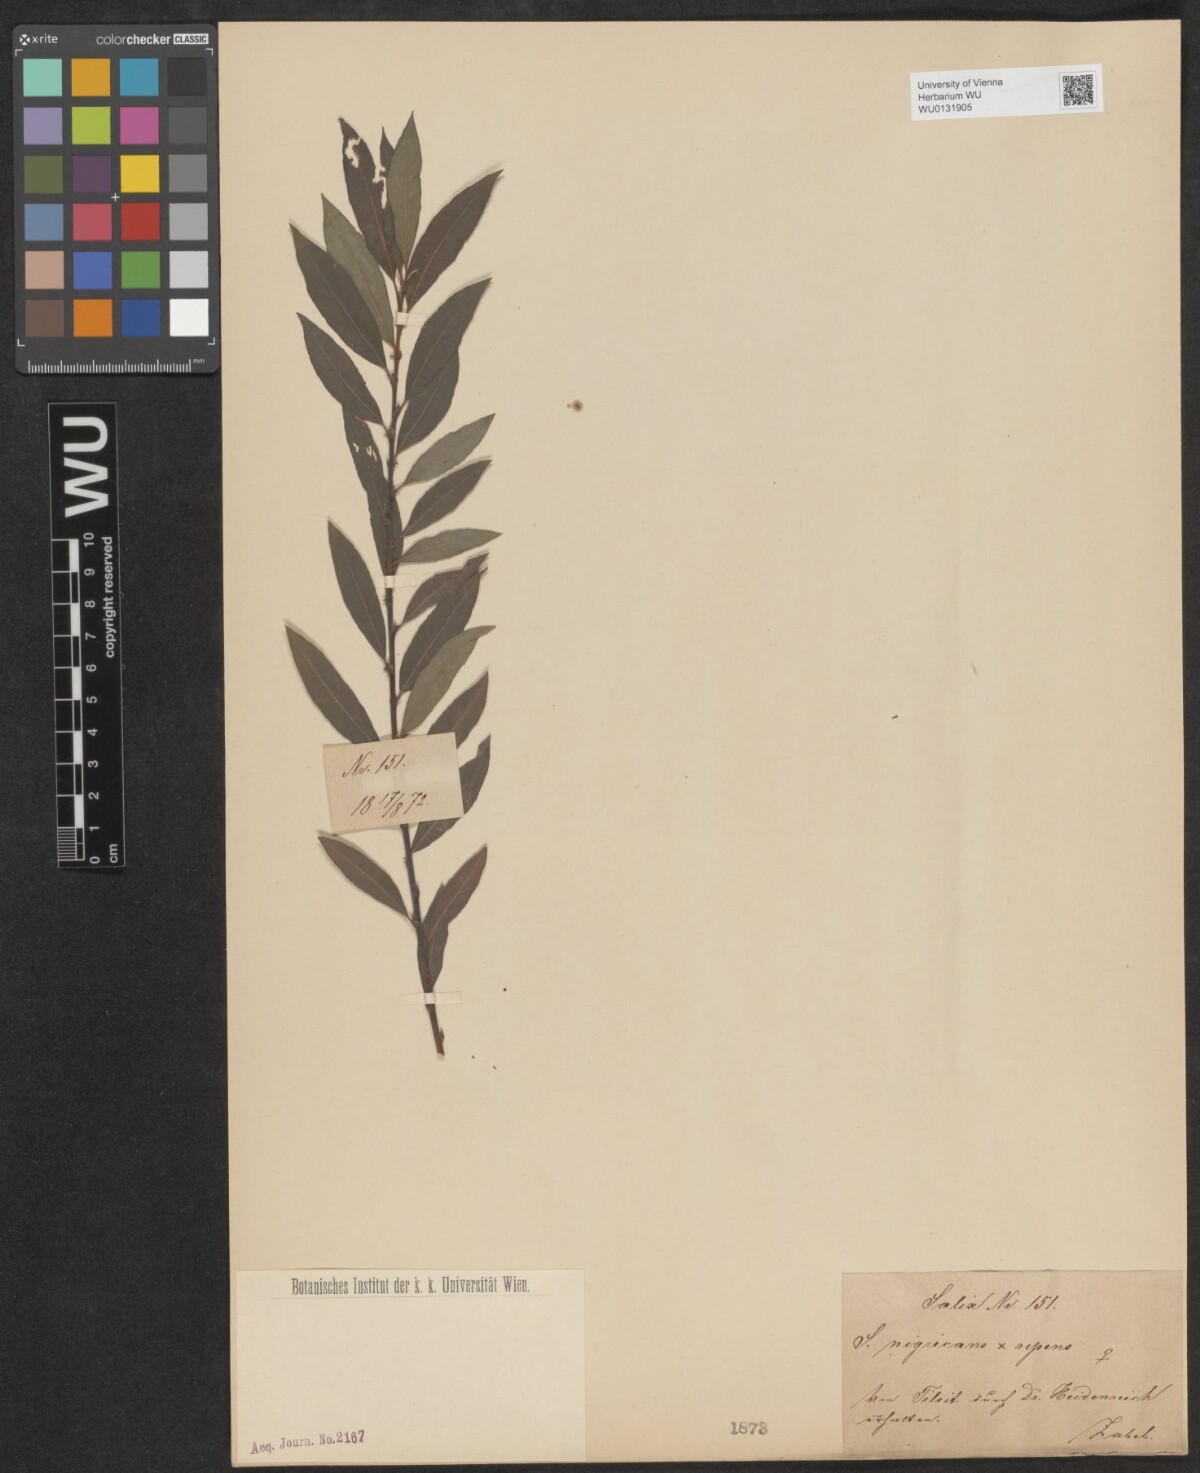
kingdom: Plantae
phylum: Tracheophyta
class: Magnoliopsida
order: Malpighiales
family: Salicaceae
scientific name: Salicaceae
